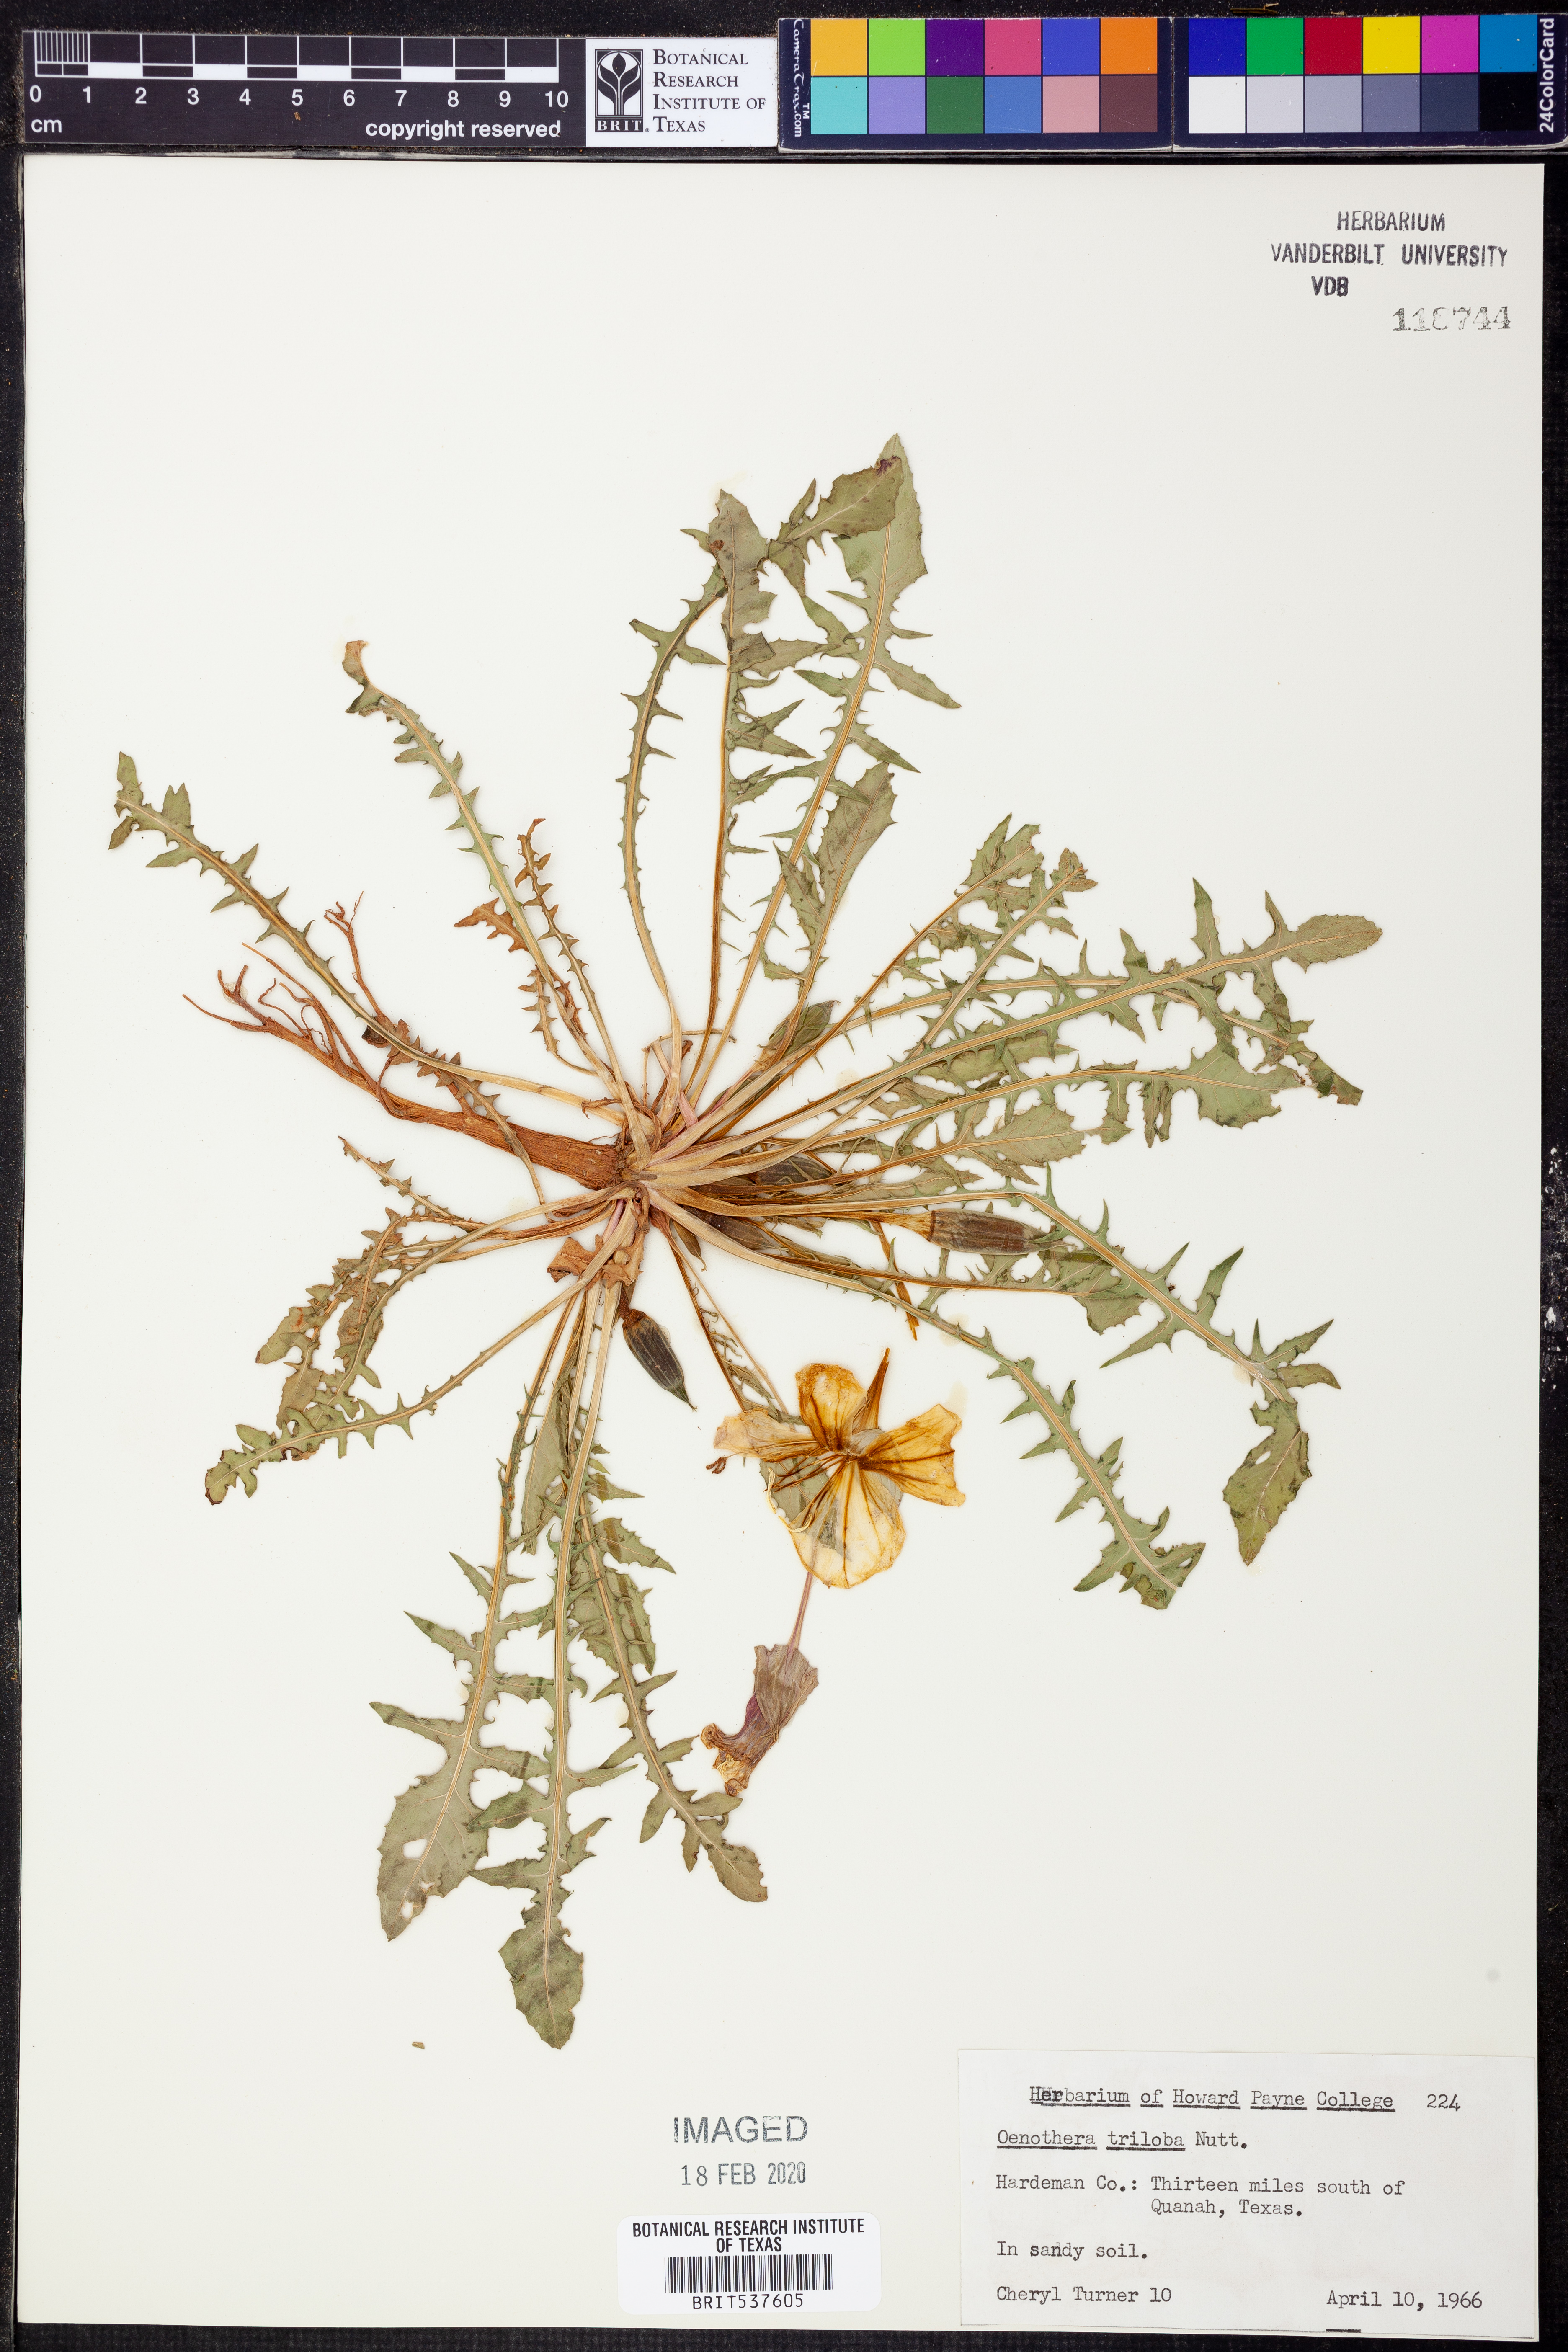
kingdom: Plantae
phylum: Tracheophyta
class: Magnoliopsida
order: Myrtales
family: Onagraceae
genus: Oenothera
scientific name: Oenothera triloba
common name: Sessile evening-primrose
